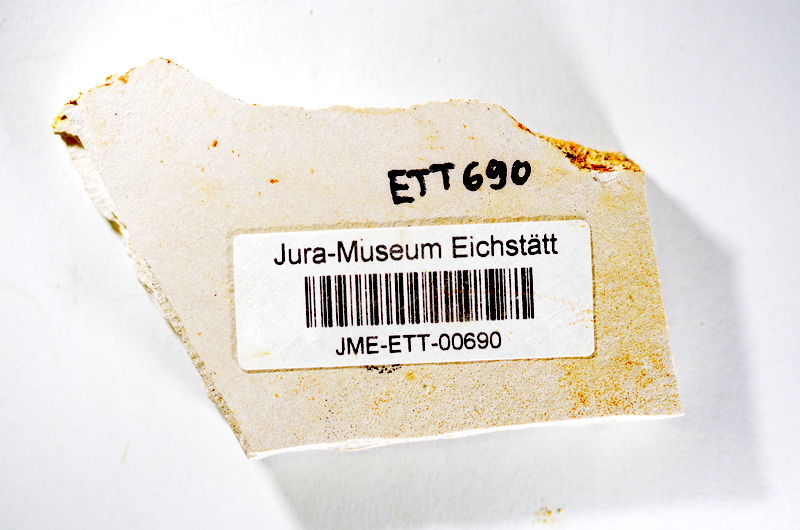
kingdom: Animalia
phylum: Chordata
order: Salmoniformes
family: Orthogonikleithridae
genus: Orthogonikleithrus
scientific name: Orthogonikleithrus hoelli
